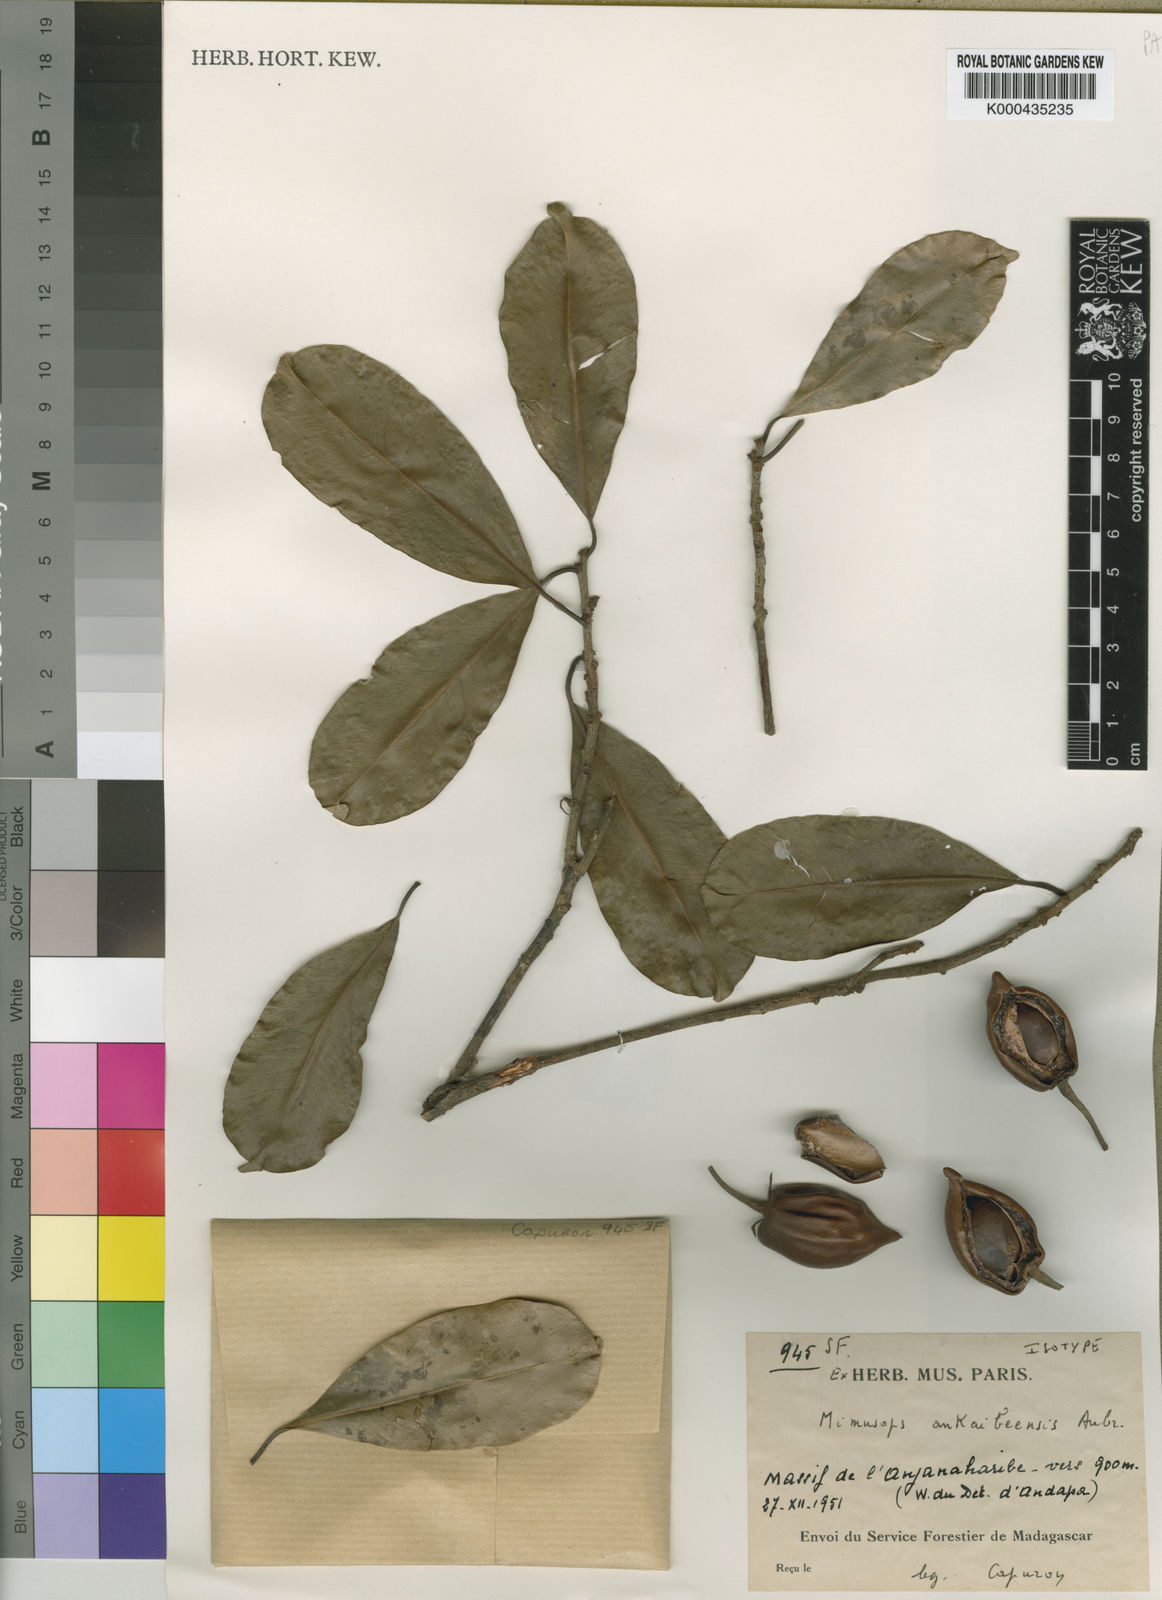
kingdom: Plantae
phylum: Tracheophyta
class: Magnoliopsida
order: Ericales
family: Sapotaceae
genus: Mimusops
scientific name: Mimusops
